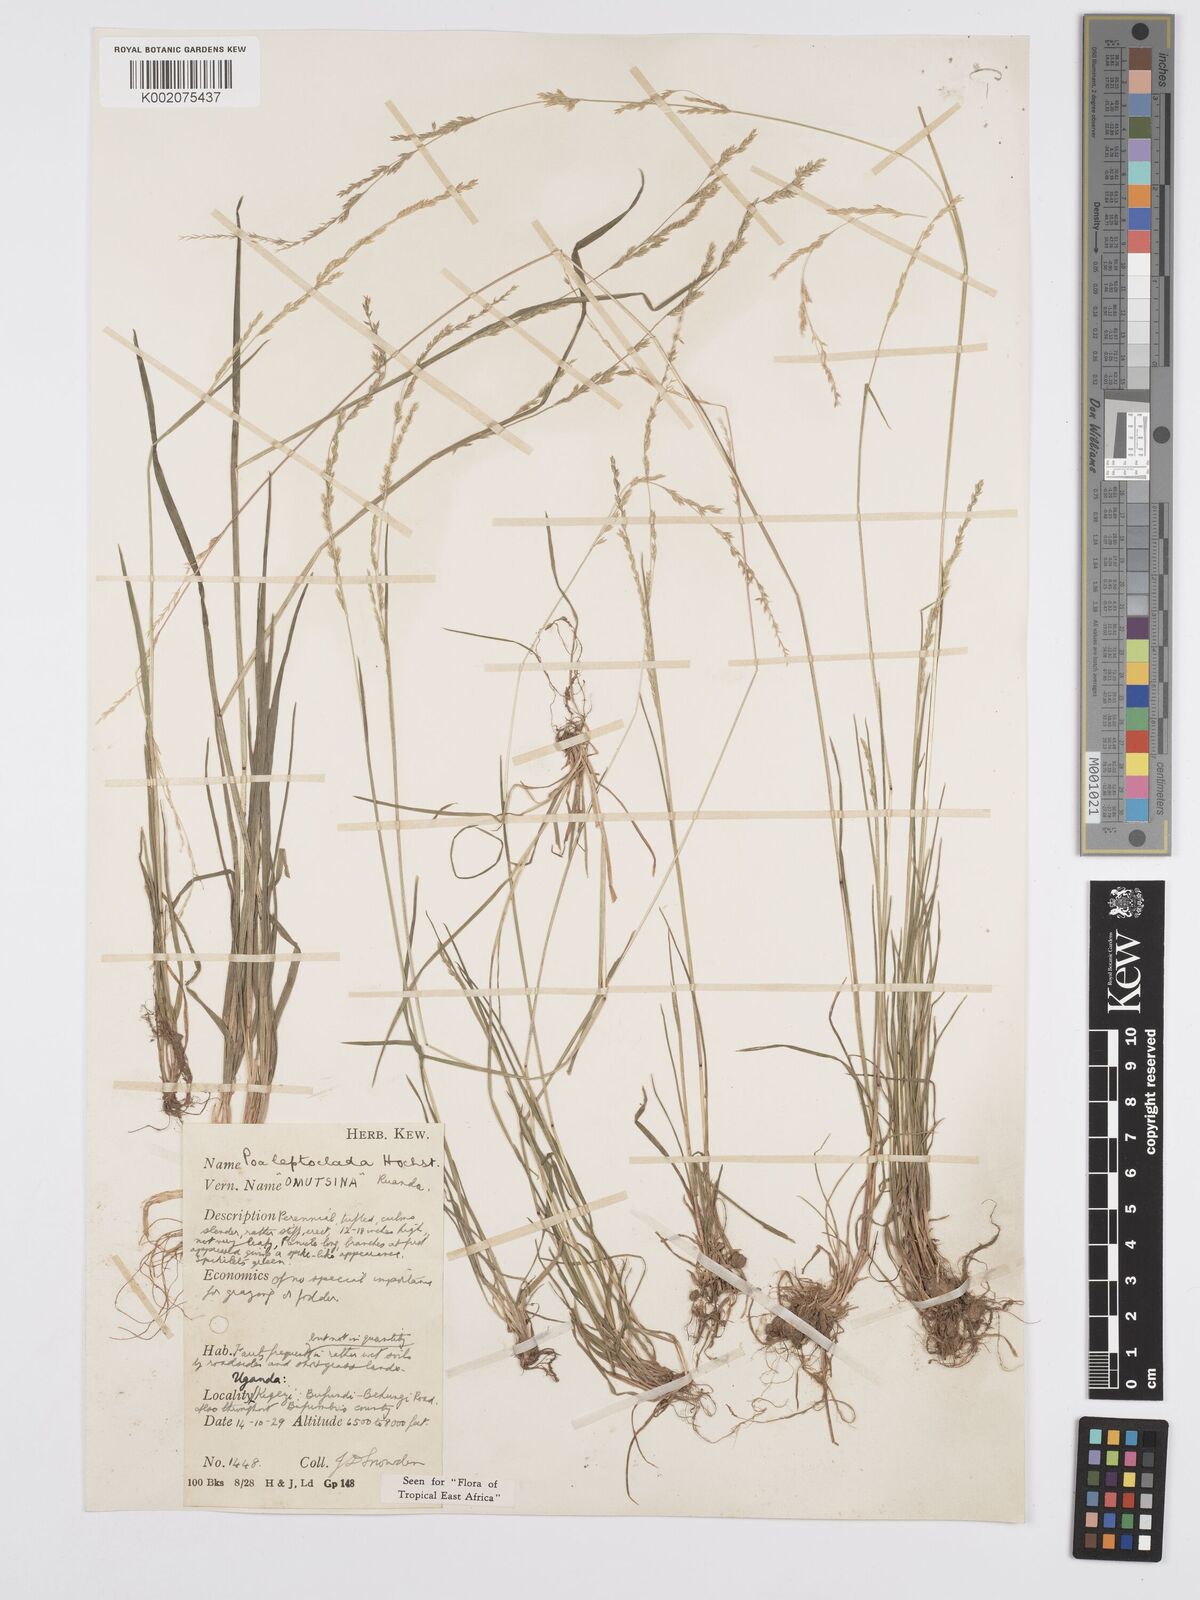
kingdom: Plantae
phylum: Tracheophyta
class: Liliopsida
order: Poales
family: Poaceae
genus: Poa
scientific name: Poa
